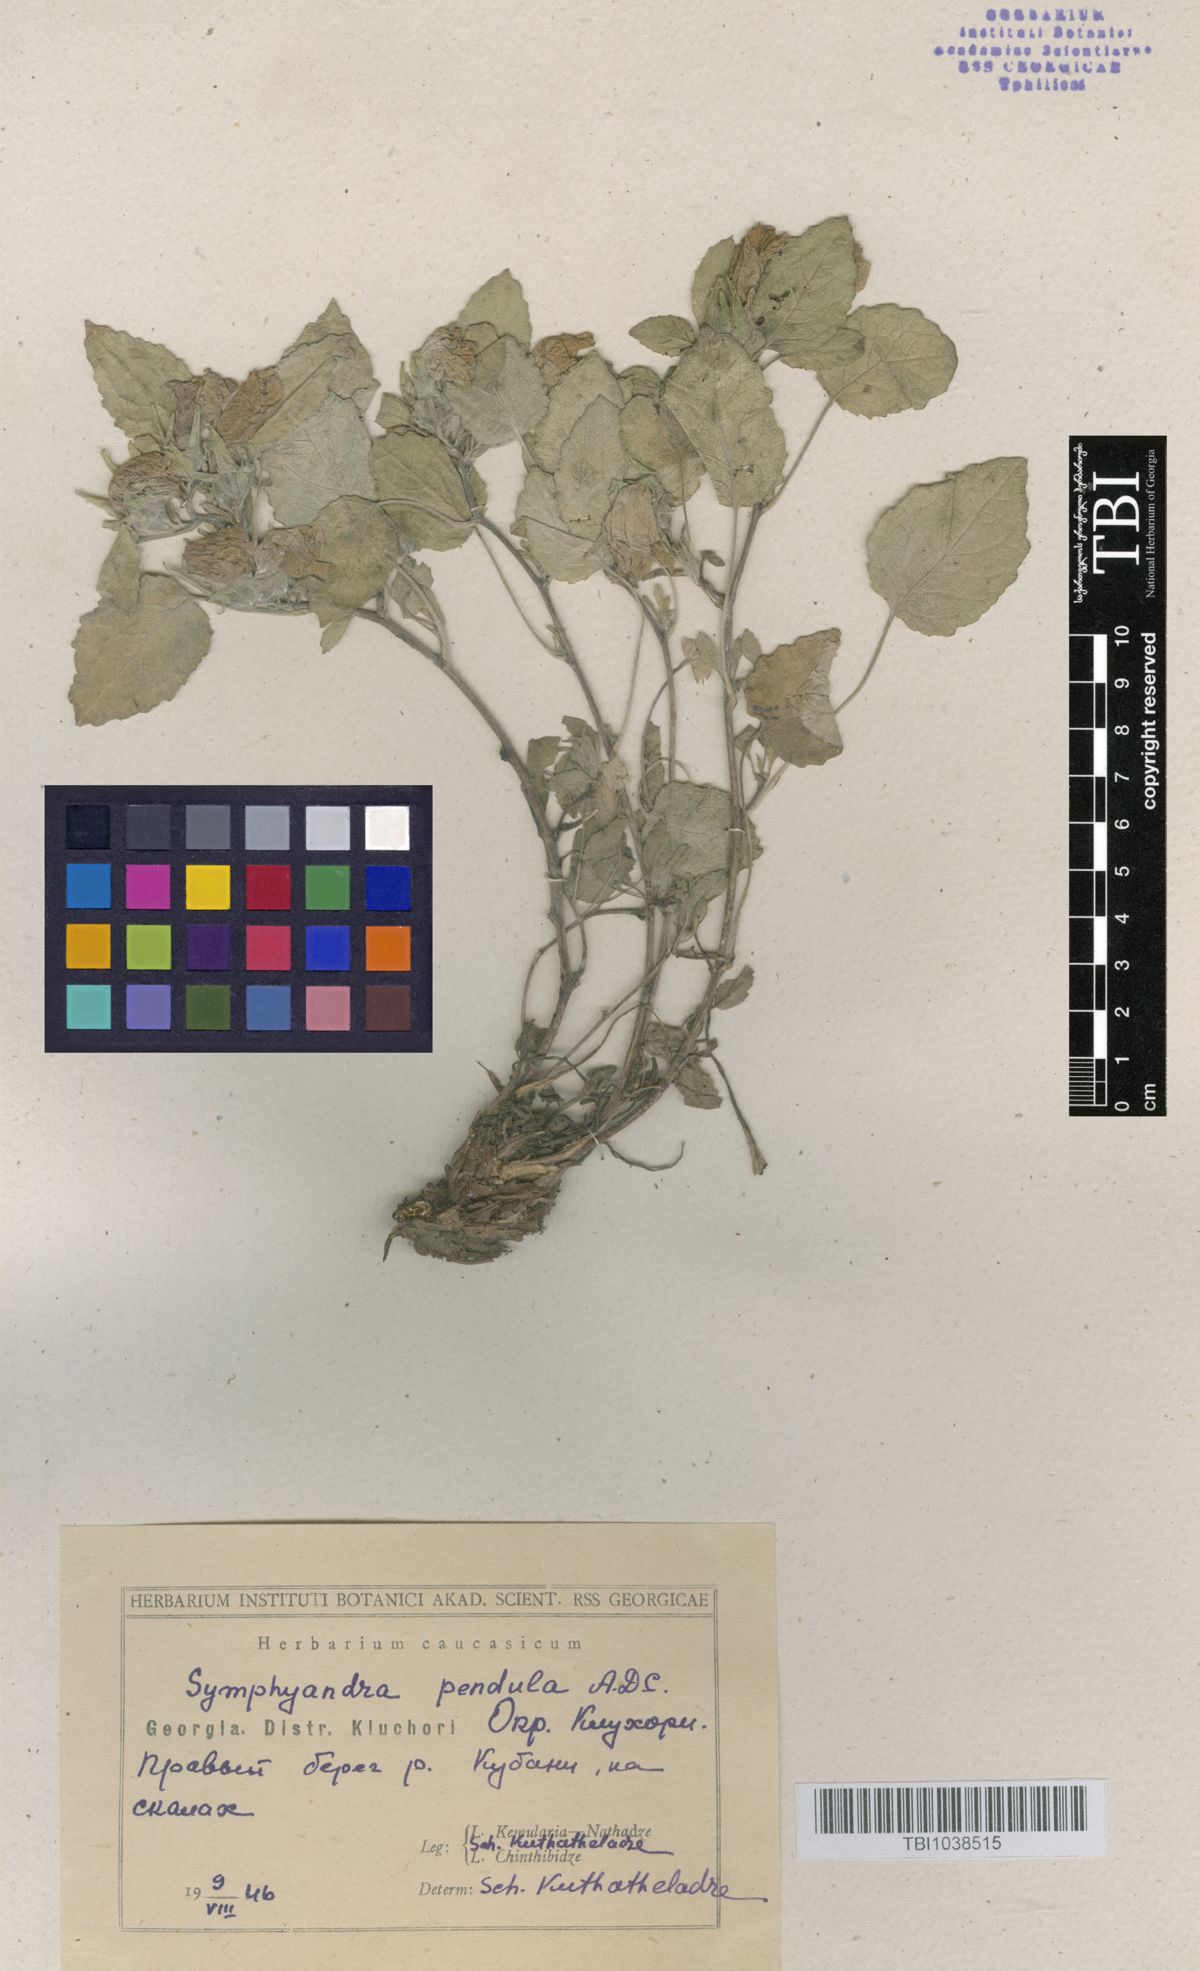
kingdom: Plantae
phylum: Tracheophyta
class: Magnoliopsida
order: Asterales
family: Campanulaceae
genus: Campanula
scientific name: Campanula pendula
